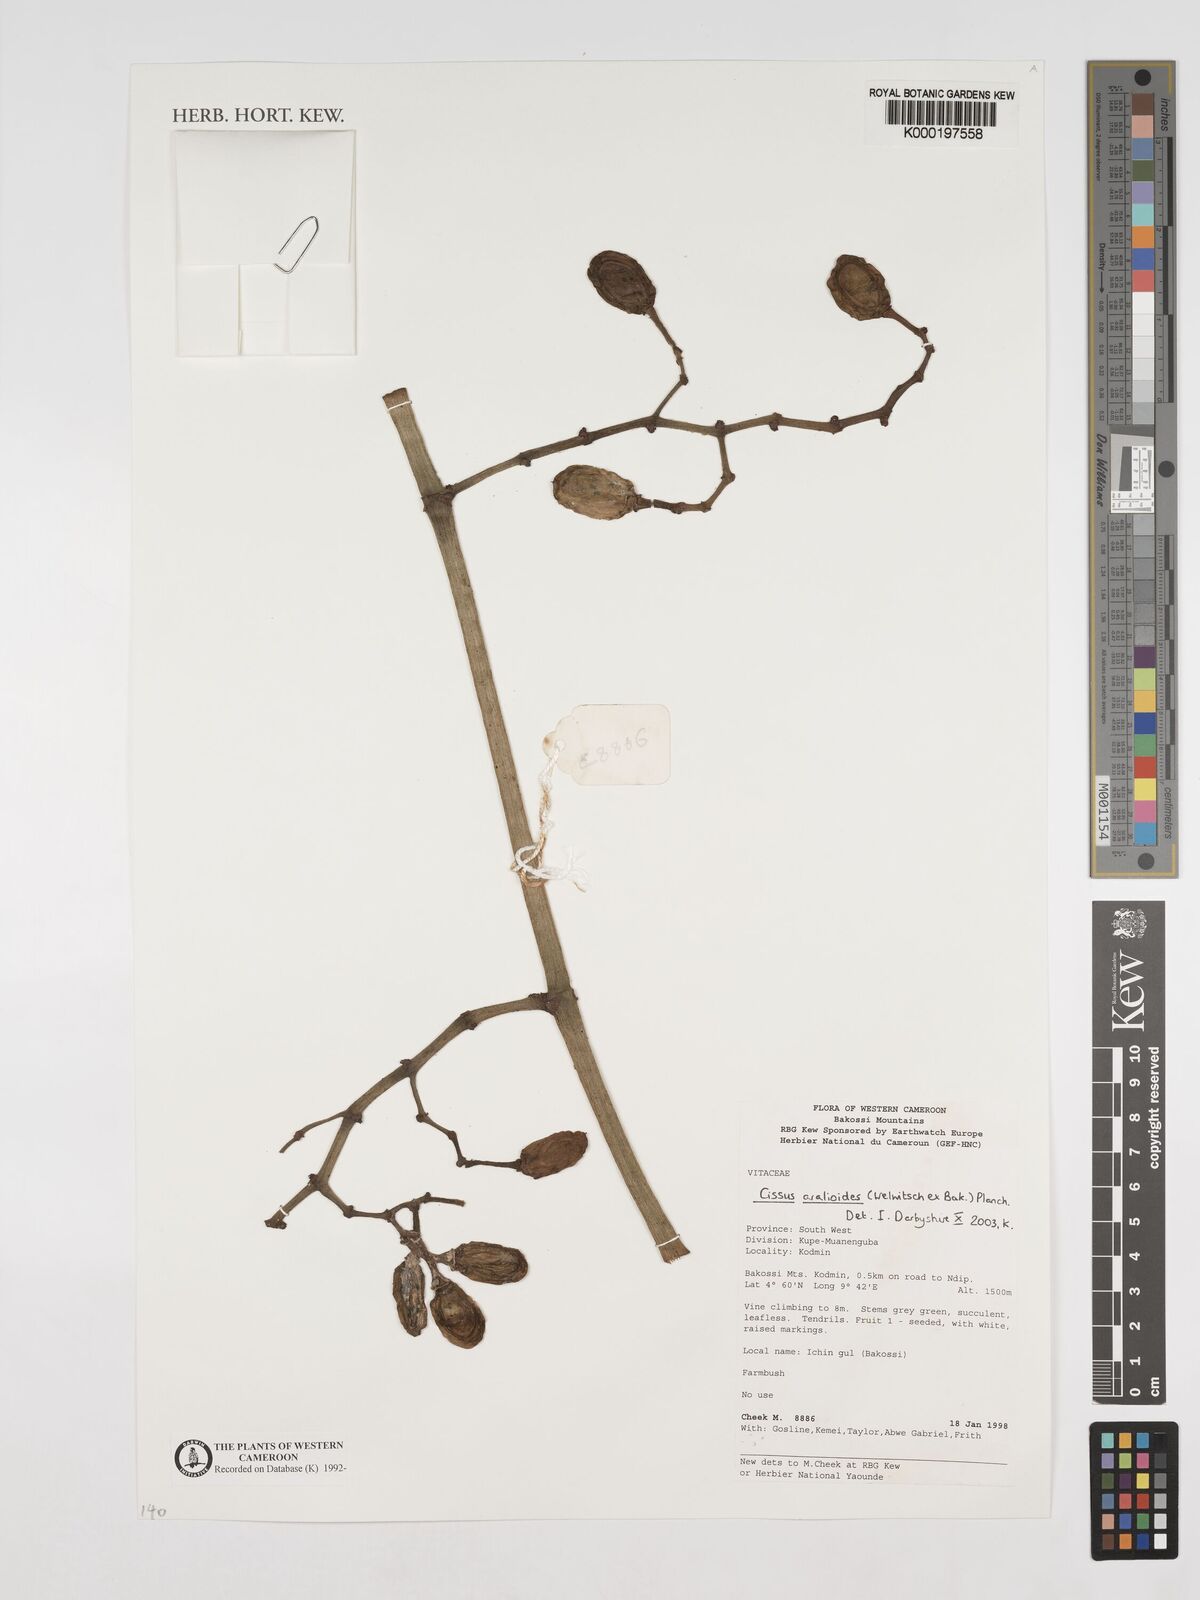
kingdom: Plantae
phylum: Tracheophyta
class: Magnoliopsida
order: Vitales
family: Vitaceae
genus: Cissus
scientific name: Cissus aralioides
